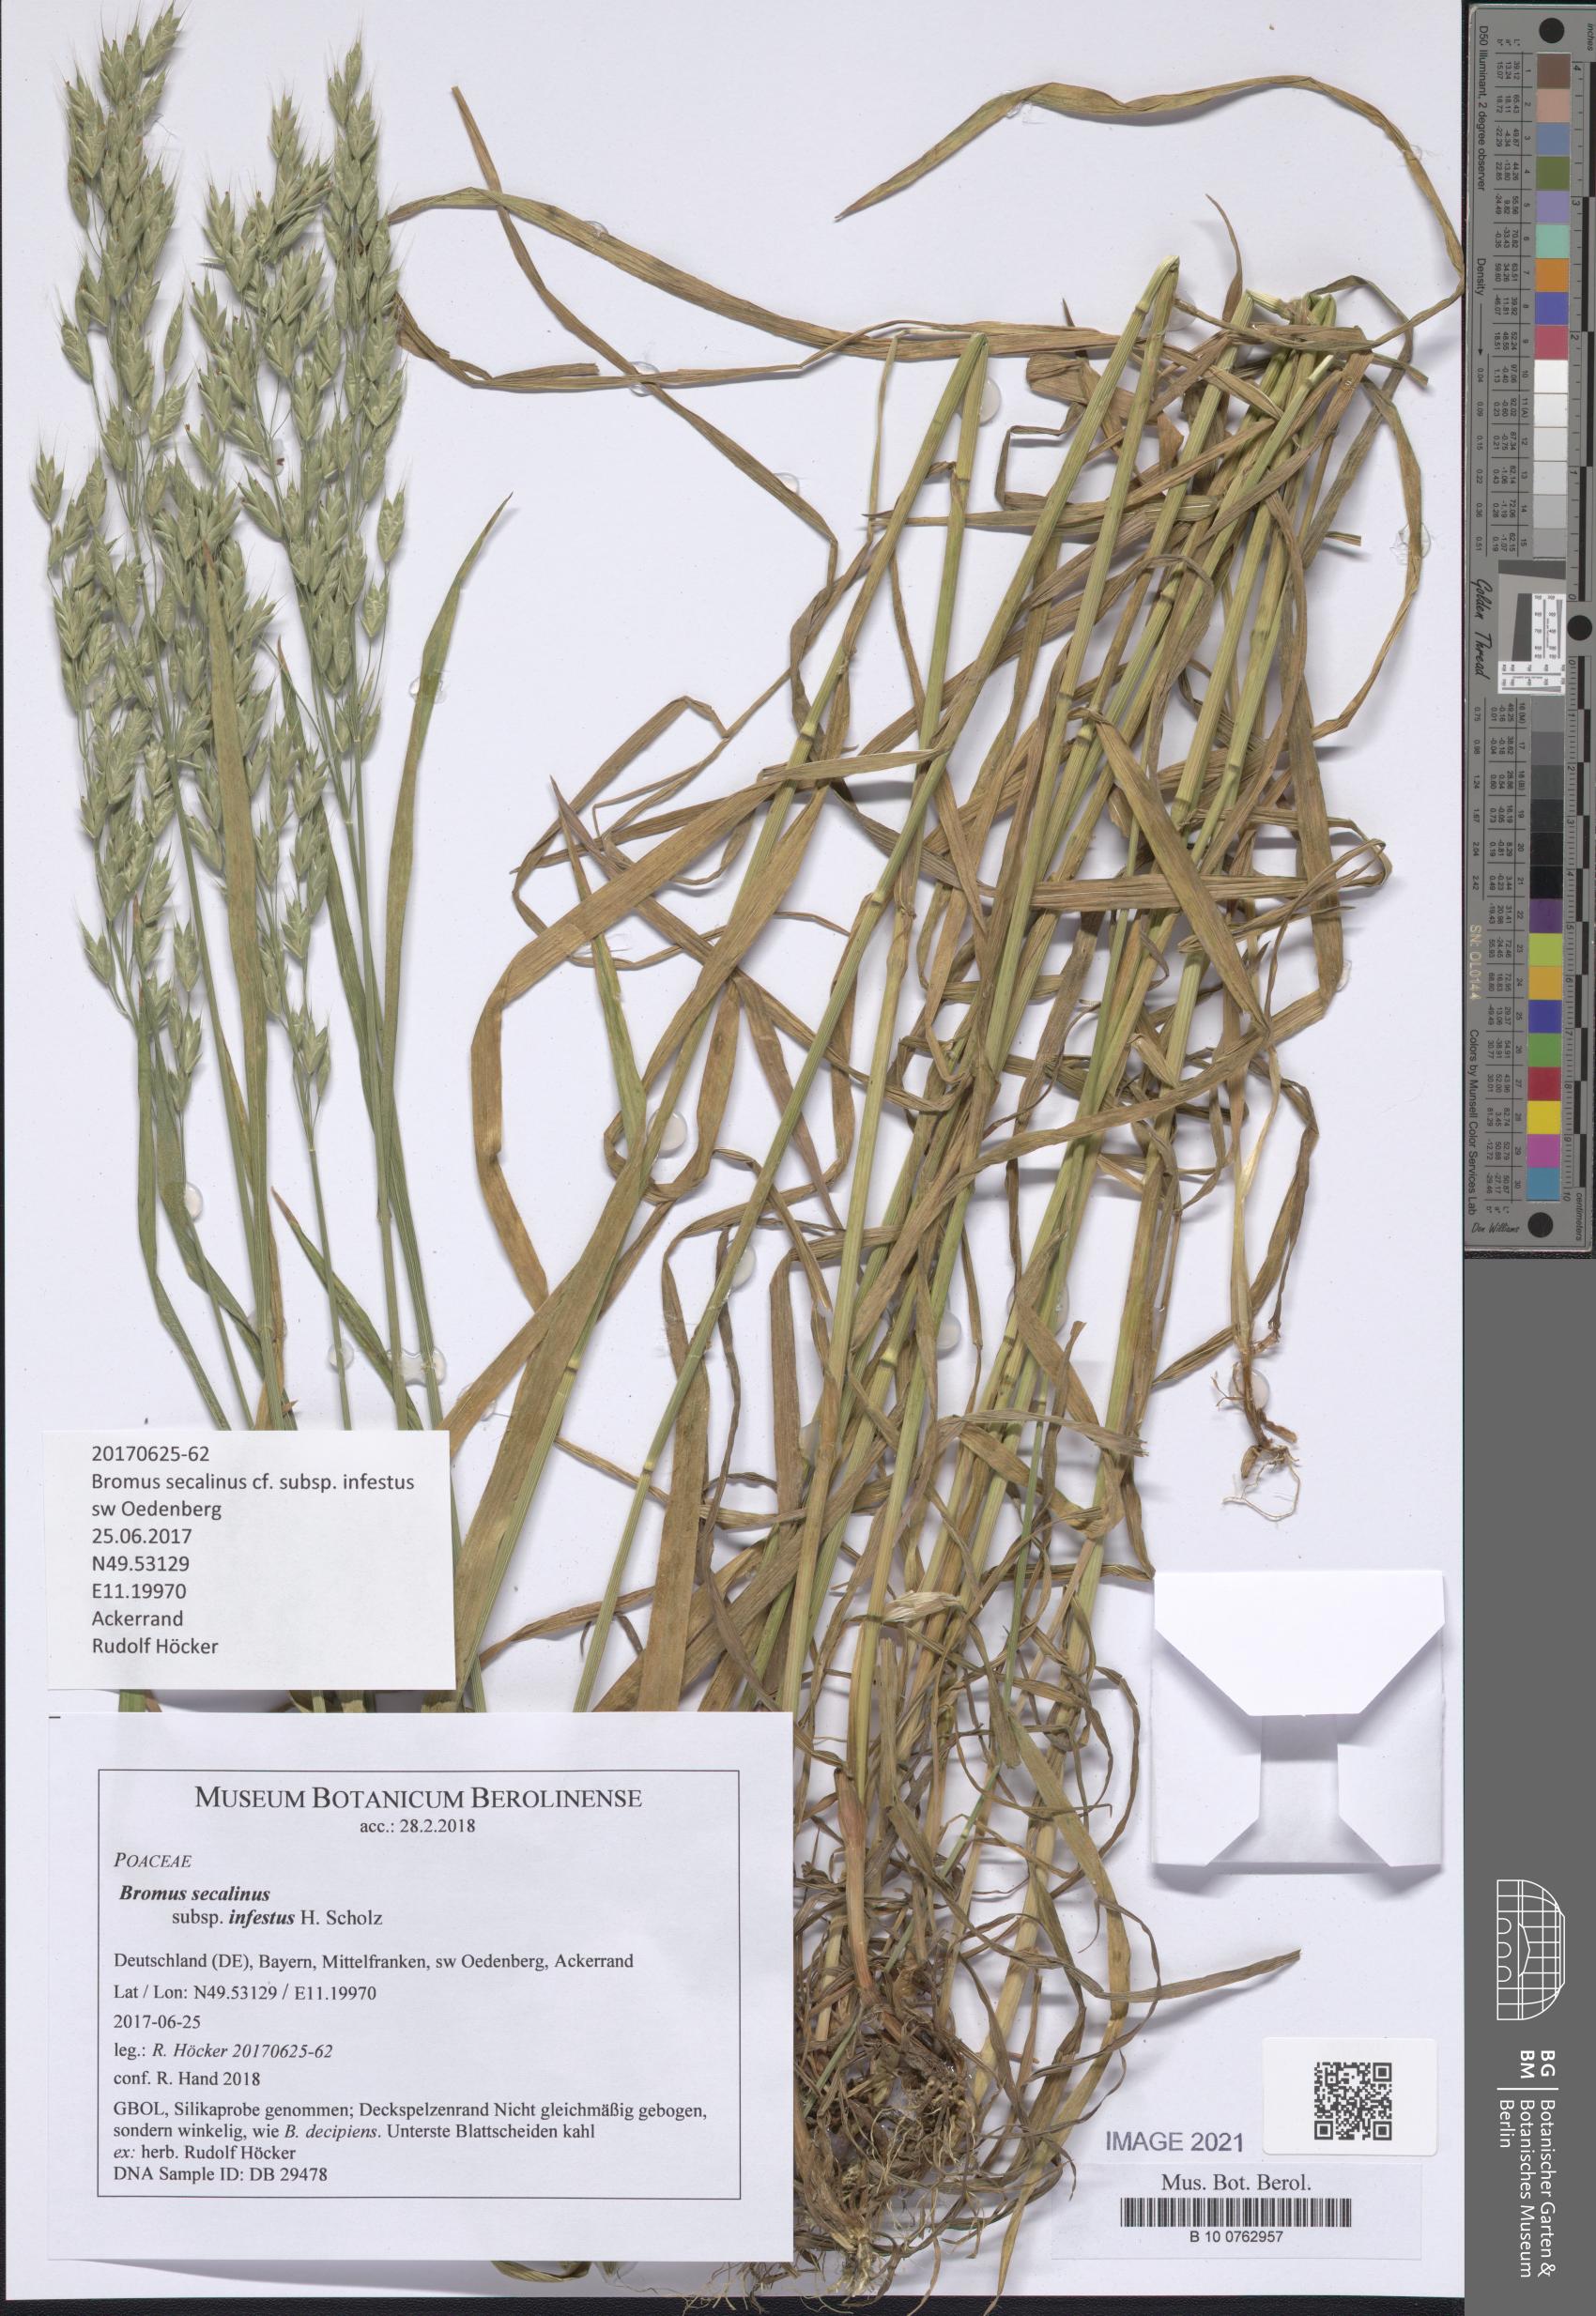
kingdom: Plantae
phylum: Tracheophyta
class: Liliopsida
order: Poales
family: Poaceae
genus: Bromus
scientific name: Bromus secalinus
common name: Rye brome
